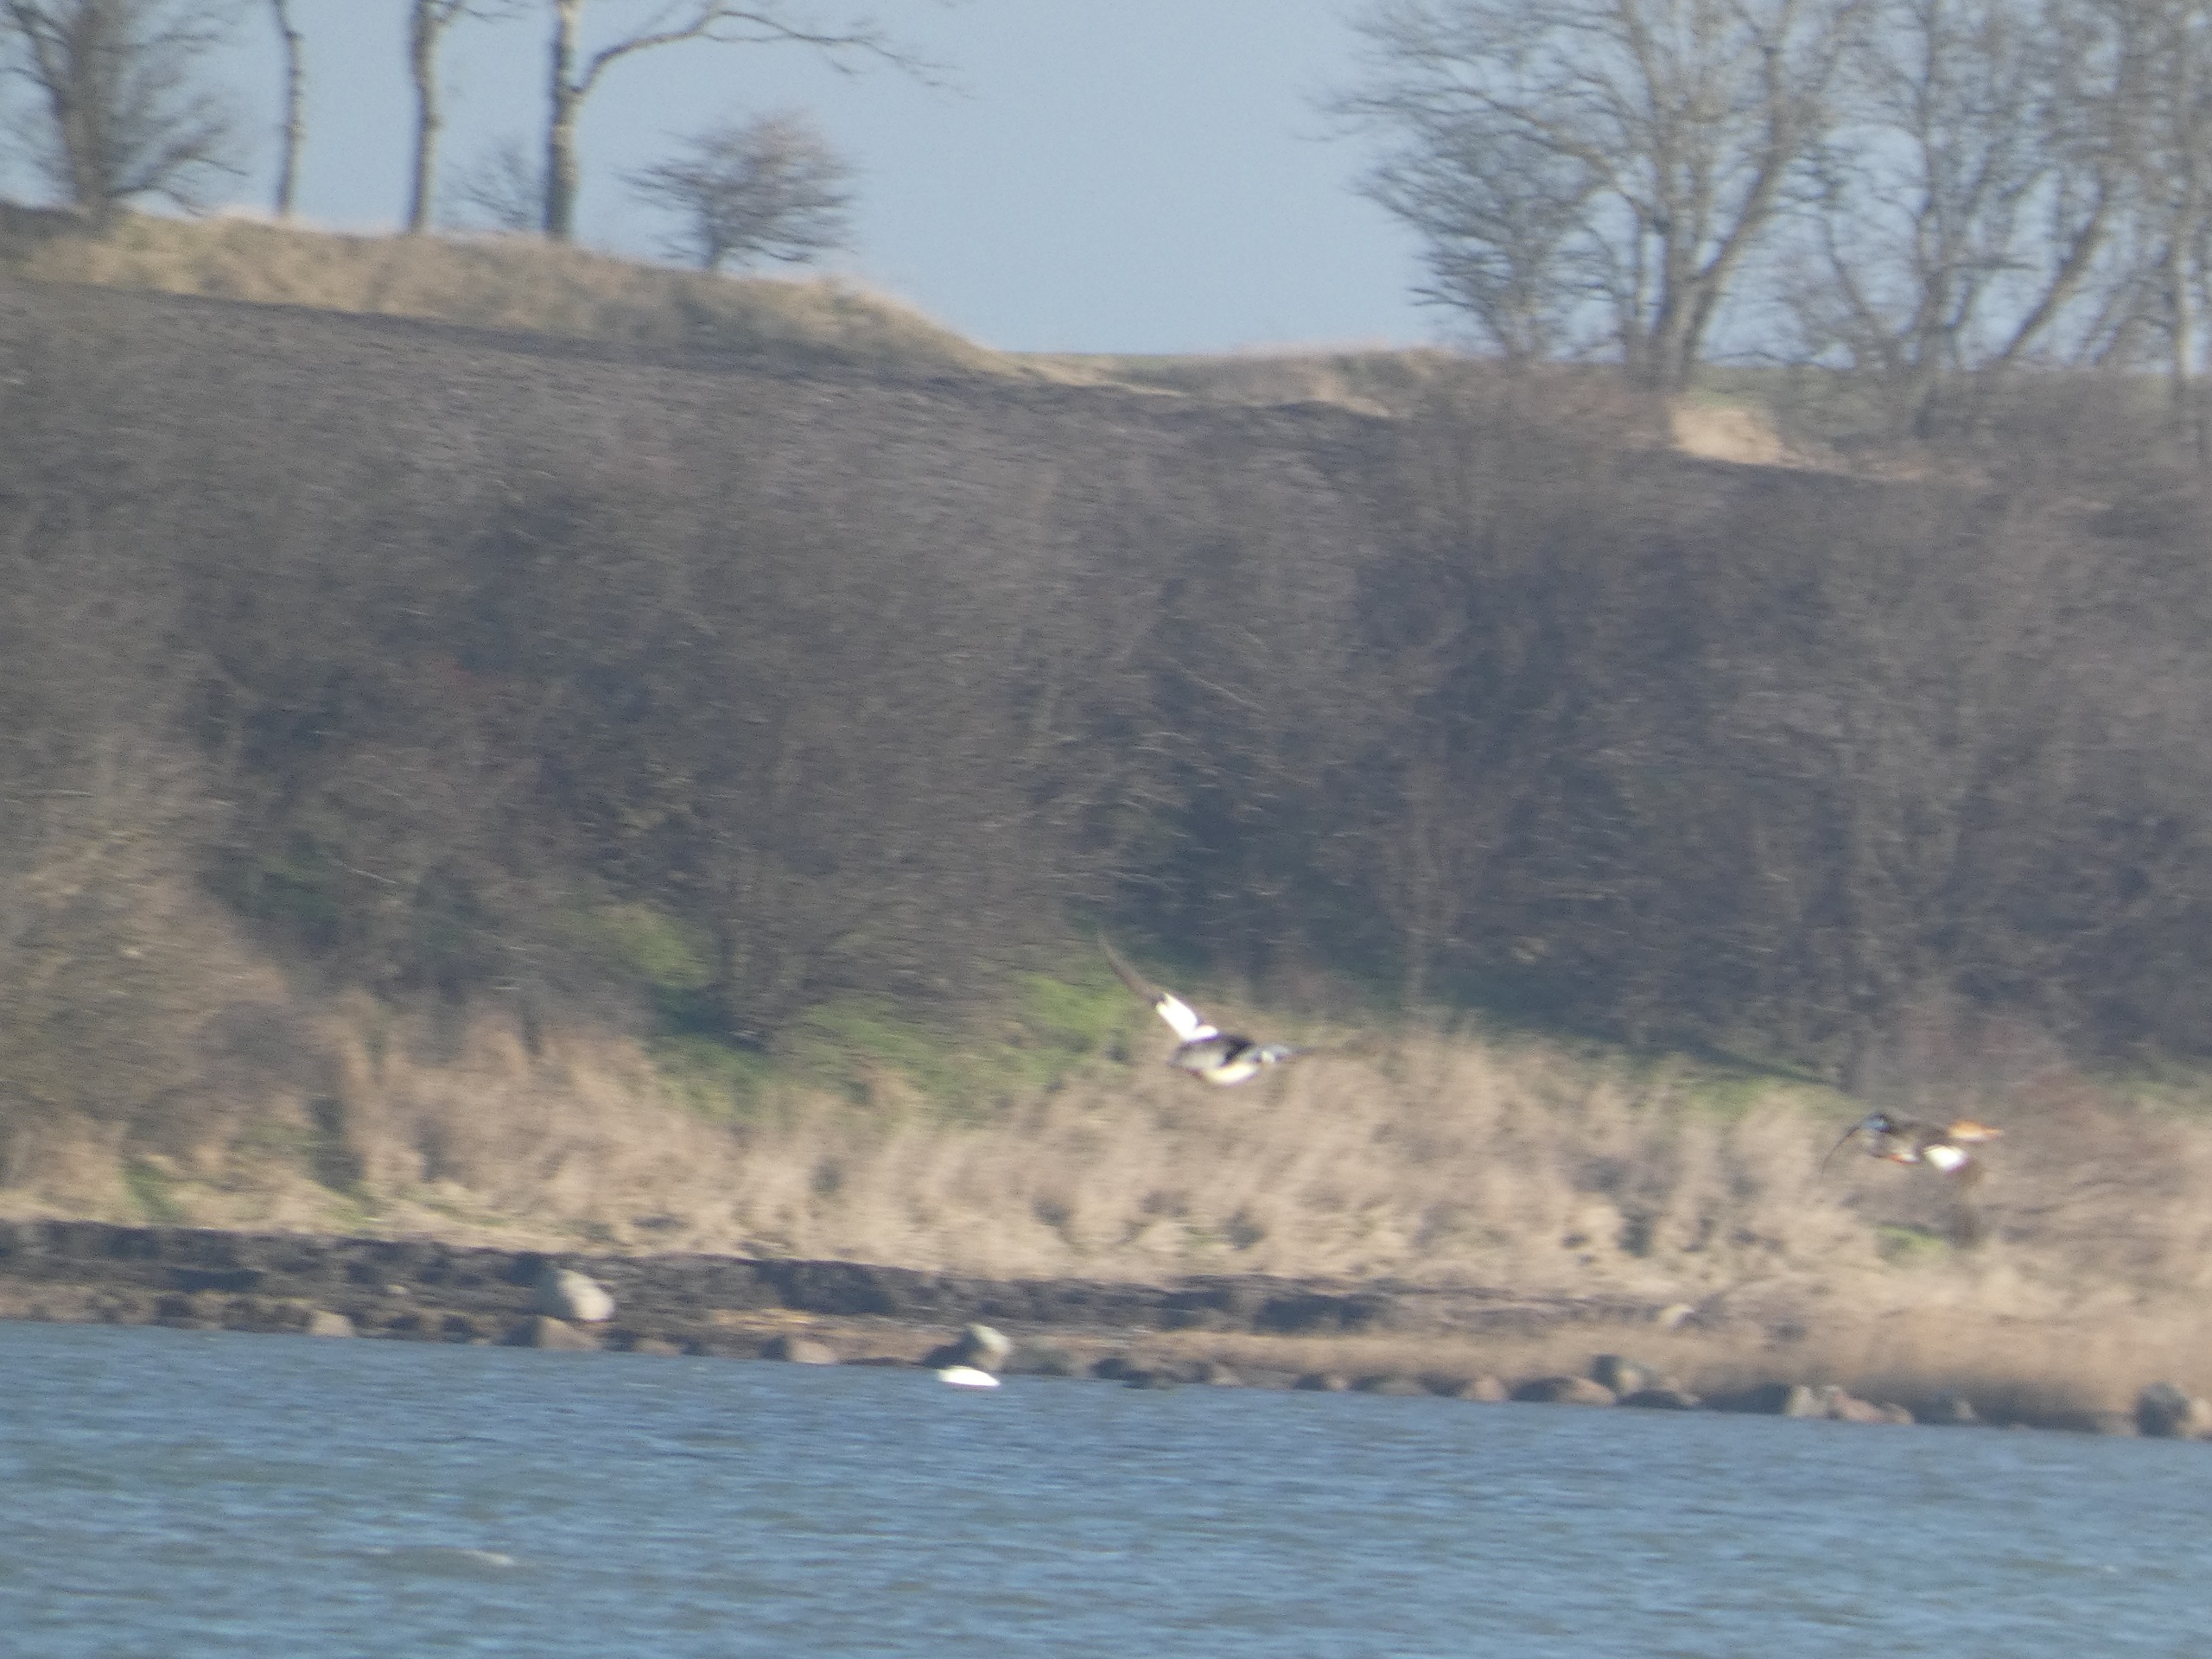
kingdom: Animalia
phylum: Chordata
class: Aves
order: Anseriformes
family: Anatidae
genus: Mergus
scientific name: Mergus serrator
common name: Toppet skallesluger
